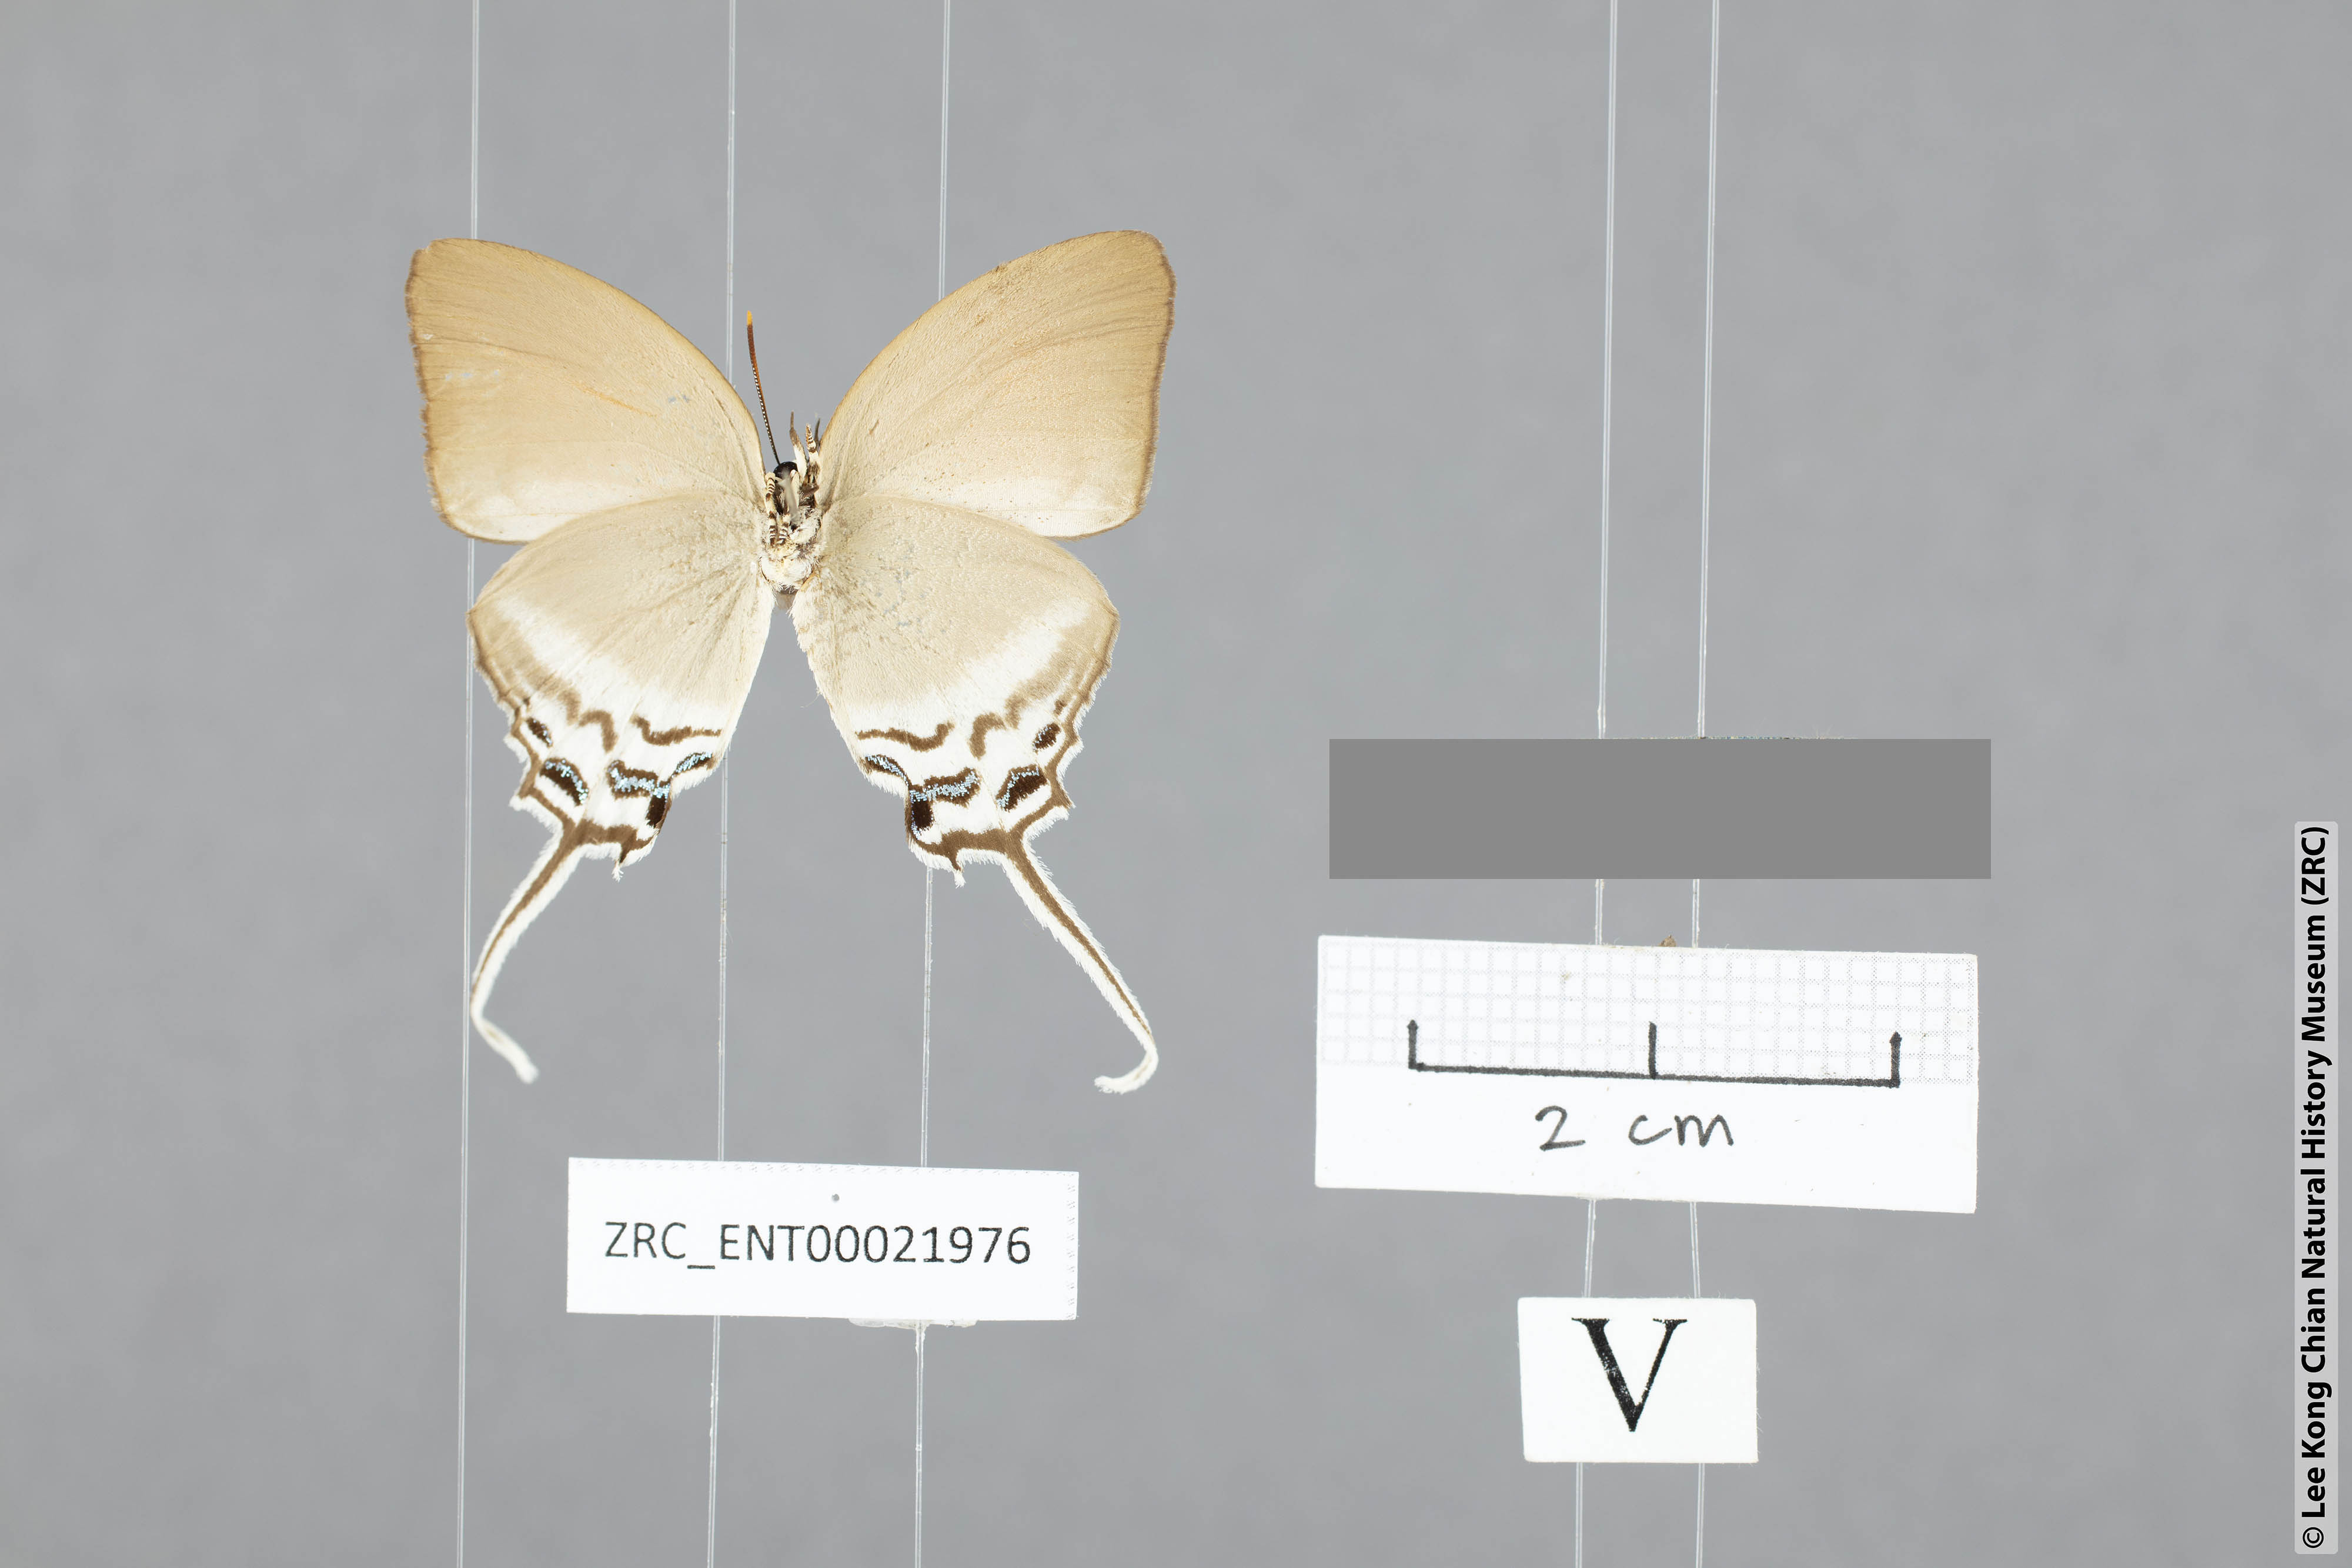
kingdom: Animalia
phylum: Arthropoda
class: Insecta
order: Lepidoptera
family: Lycaenidae
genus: Ritra
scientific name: Ritra aurea
